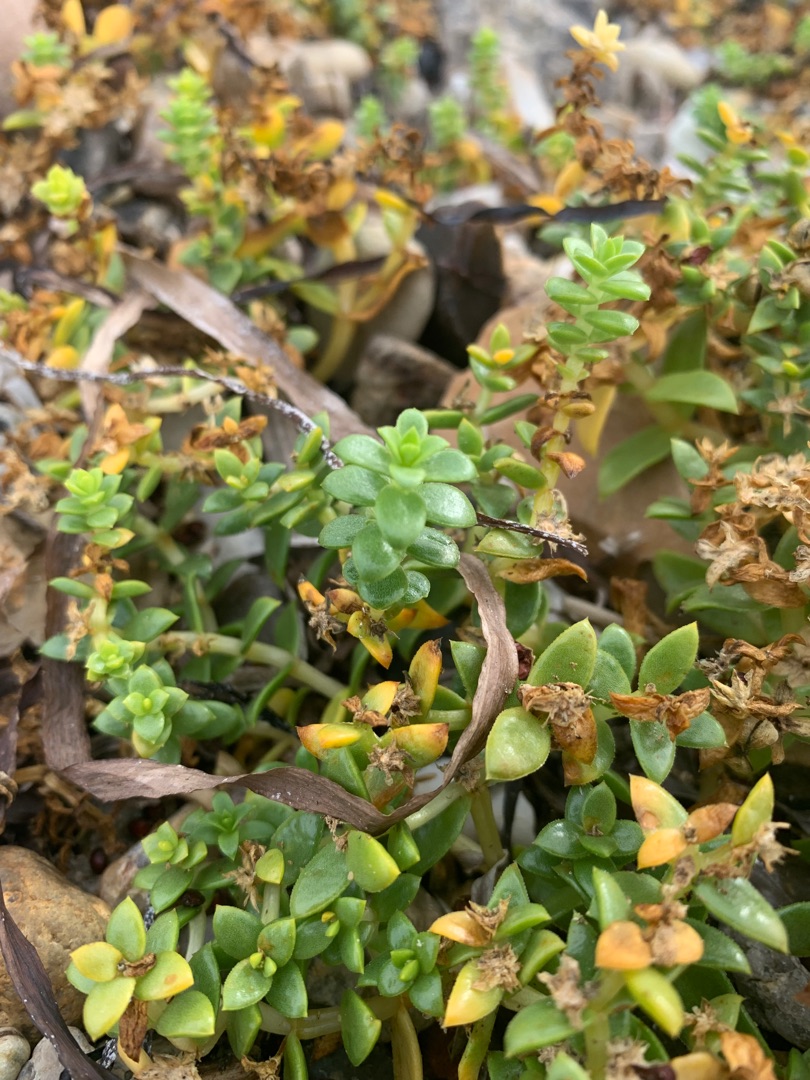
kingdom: Plantae
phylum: Tracheophyta
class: Magnoliopsida
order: Caryophyllales
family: Caryophyllaceae
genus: Honckenya
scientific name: Honckenya peploides
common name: Strandarve
